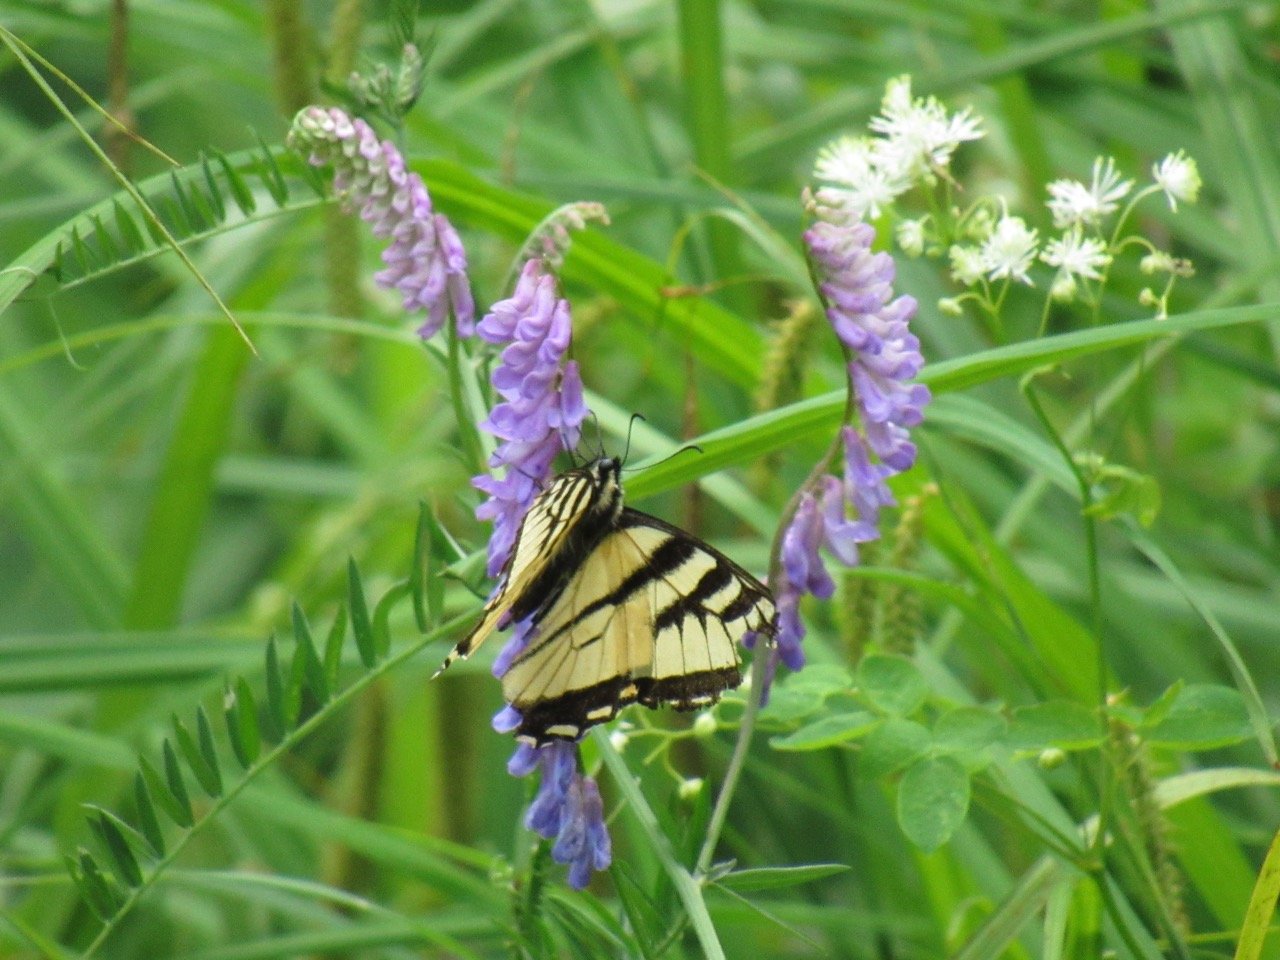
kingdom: Animalia
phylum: Arthropoda
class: Insecta
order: Lepidoptera
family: Papilionidae
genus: Pterourus
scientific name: Pterourus
